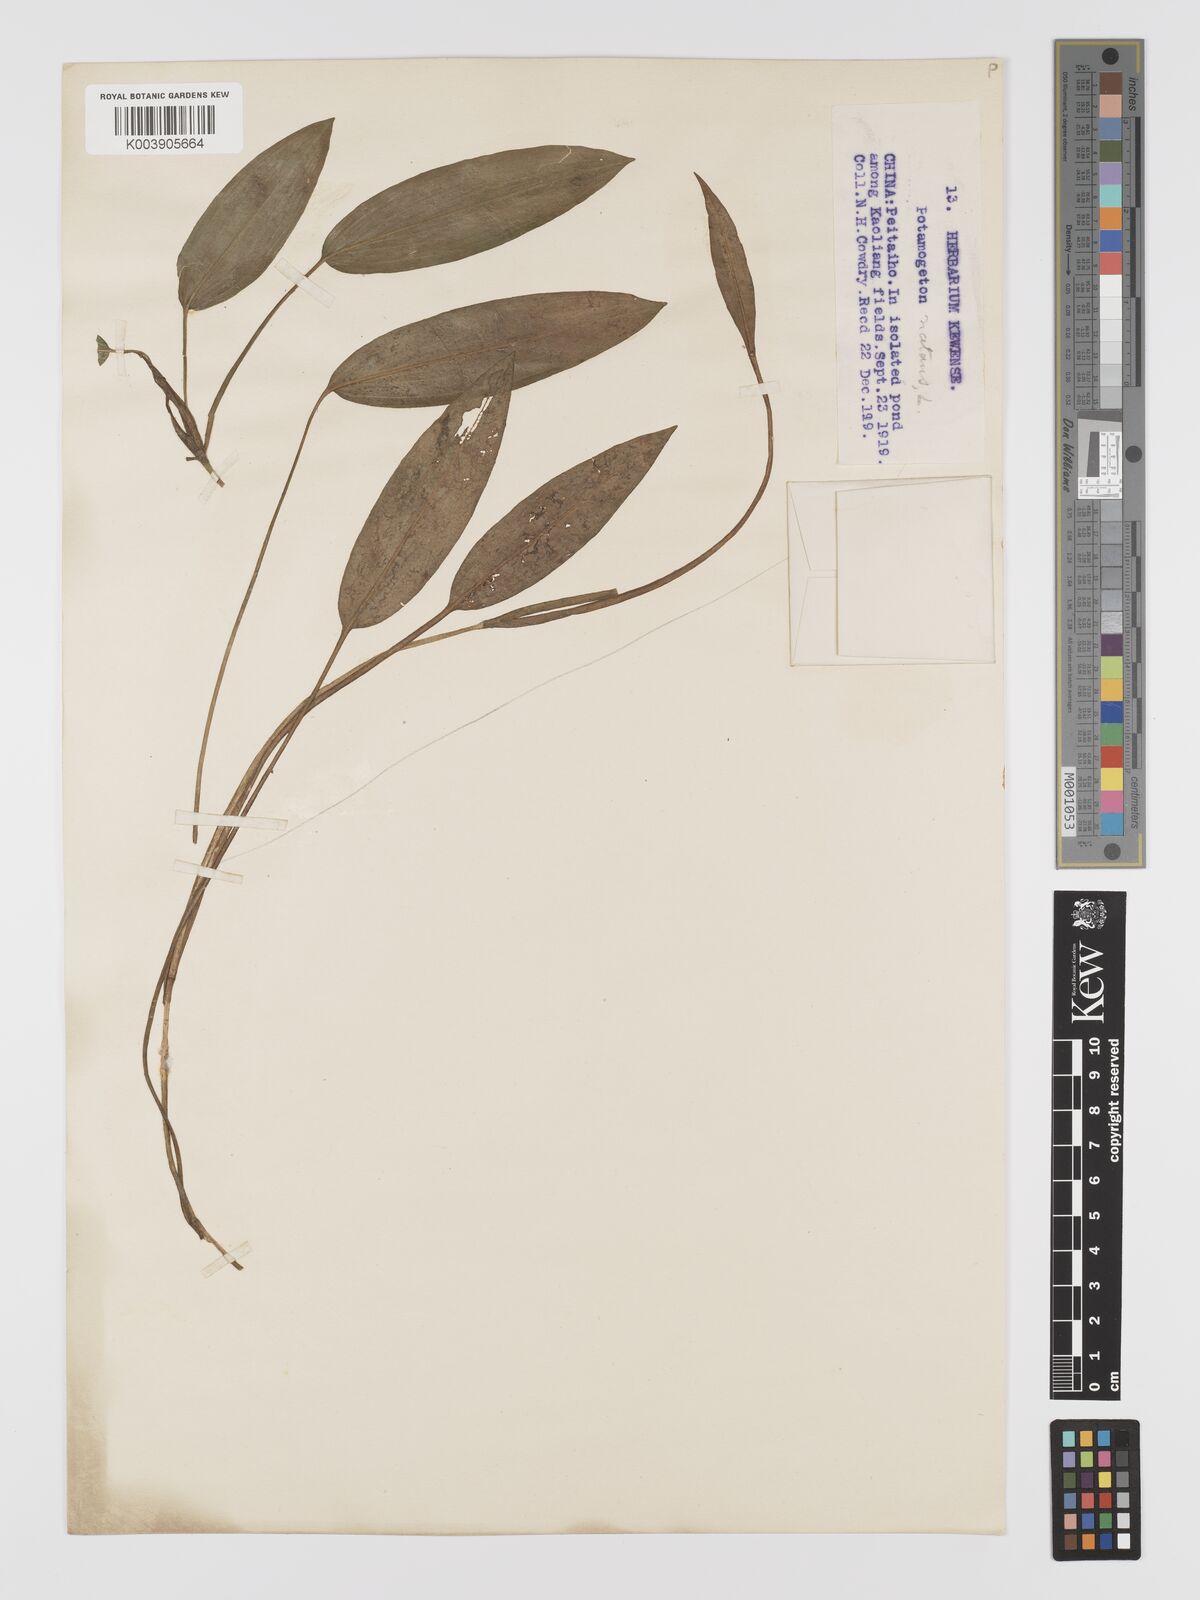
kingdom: Plantae
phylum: Tracheophyta
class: Liliopsida
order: Alismatales
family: Potamogetonaceae
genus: Potamogeton
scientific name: Potamogeton natans
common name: Broad-leaved pondweed
